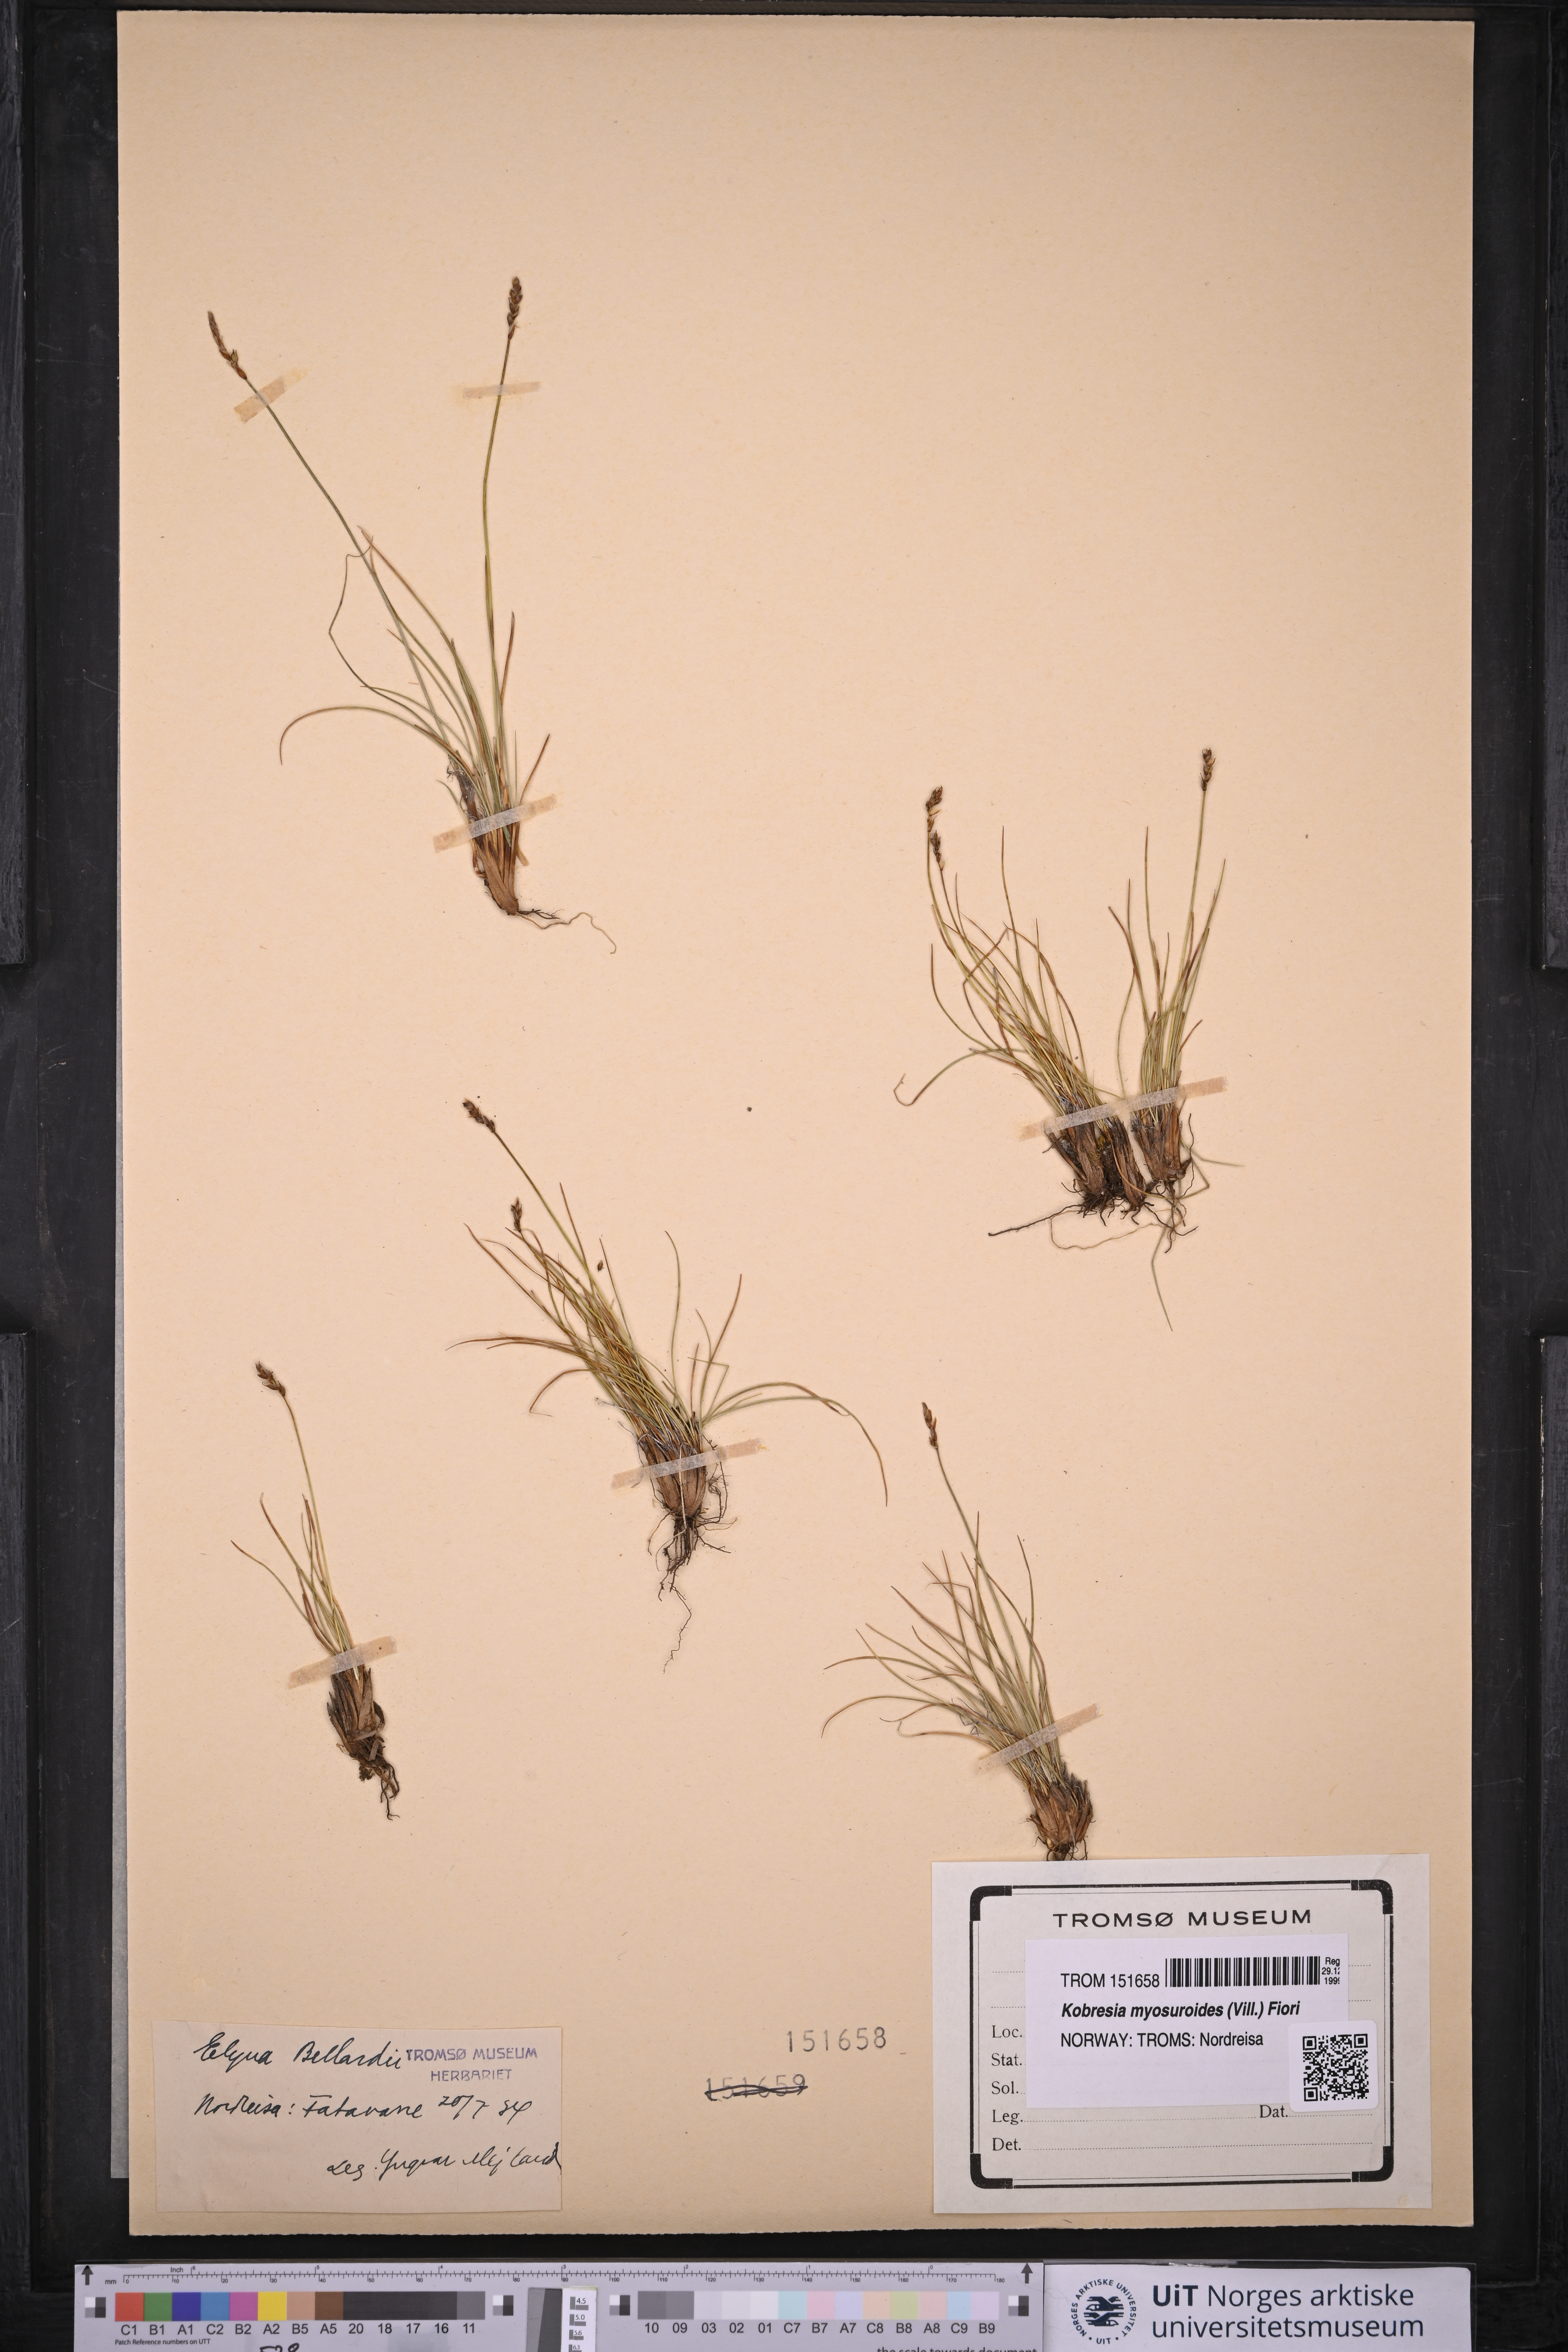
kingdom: Plantae
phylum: Tracheophyta
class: Liliopsida
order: Poales
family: Cyperaceae
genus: Carex
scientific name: Carex myosuroides
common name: Bellard's bog sedge
